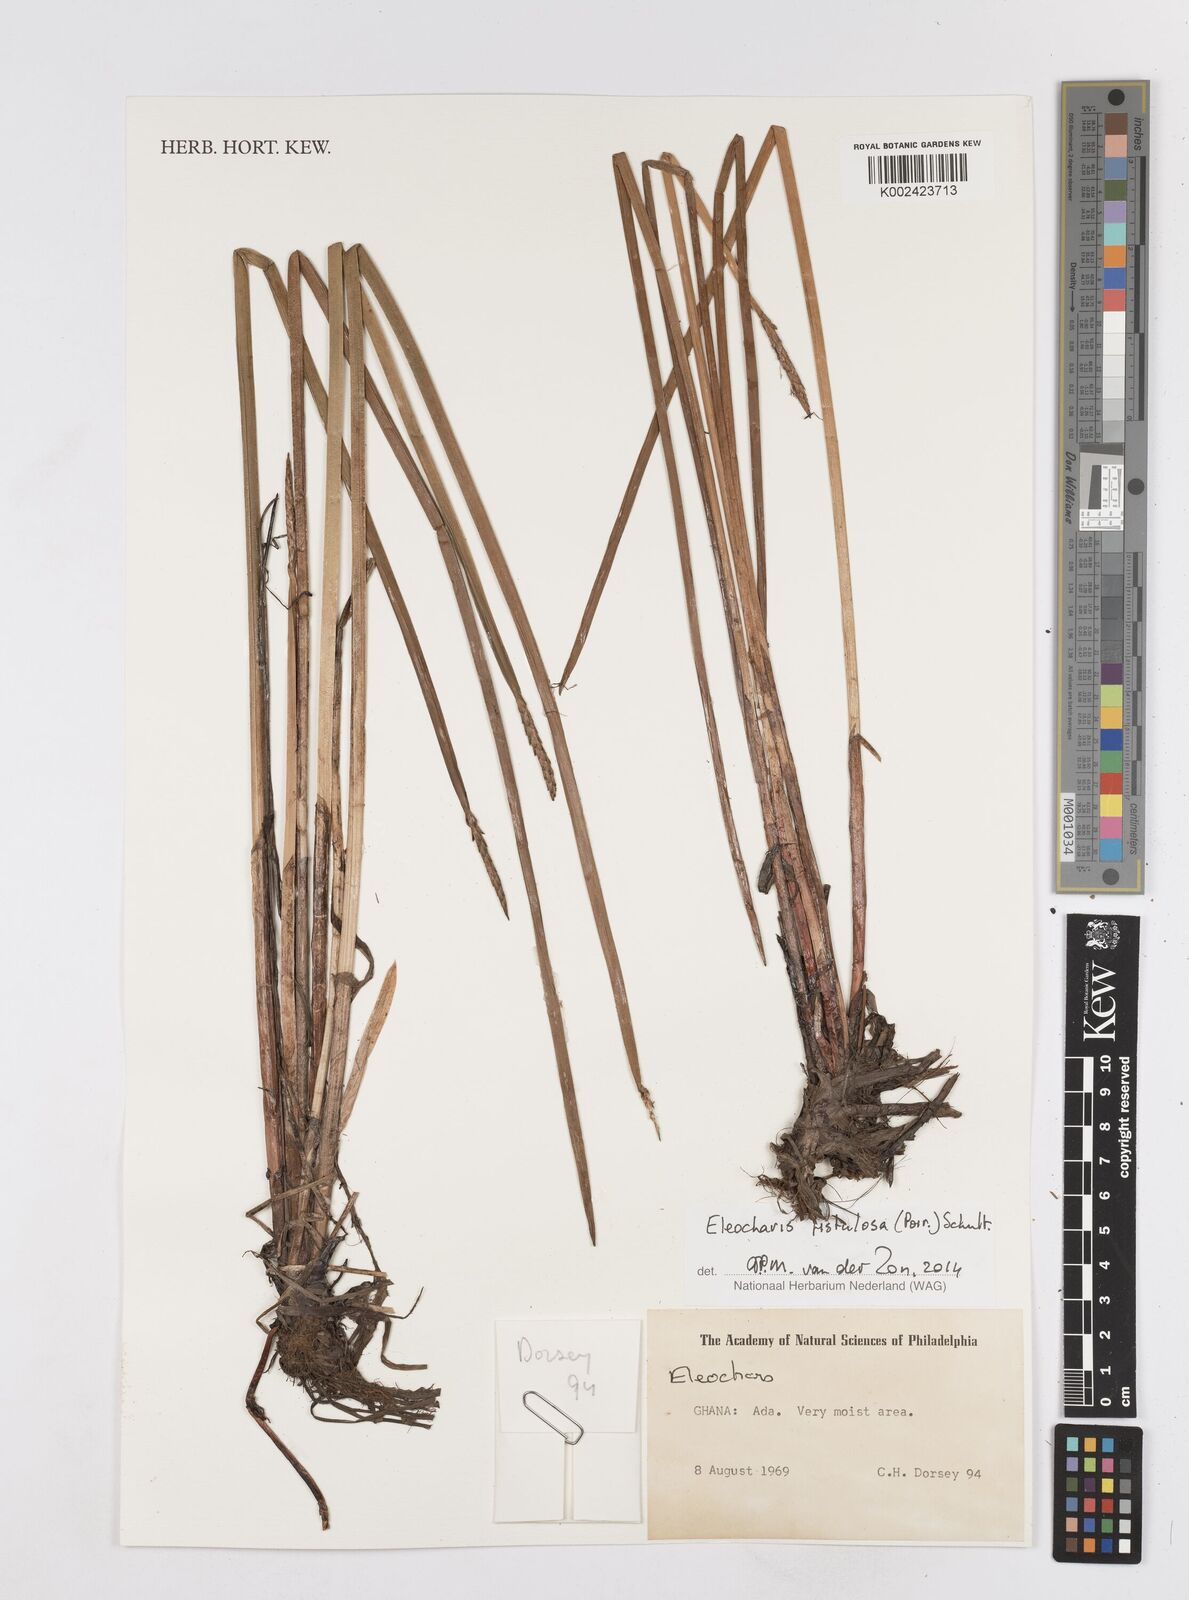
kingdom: Plantae
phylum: Tracheophyta
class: Liliopsida
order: Poales
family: Cyperaceae
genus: Eleocharis
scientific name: Eleocharis acutangula
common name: Acute spikerush
